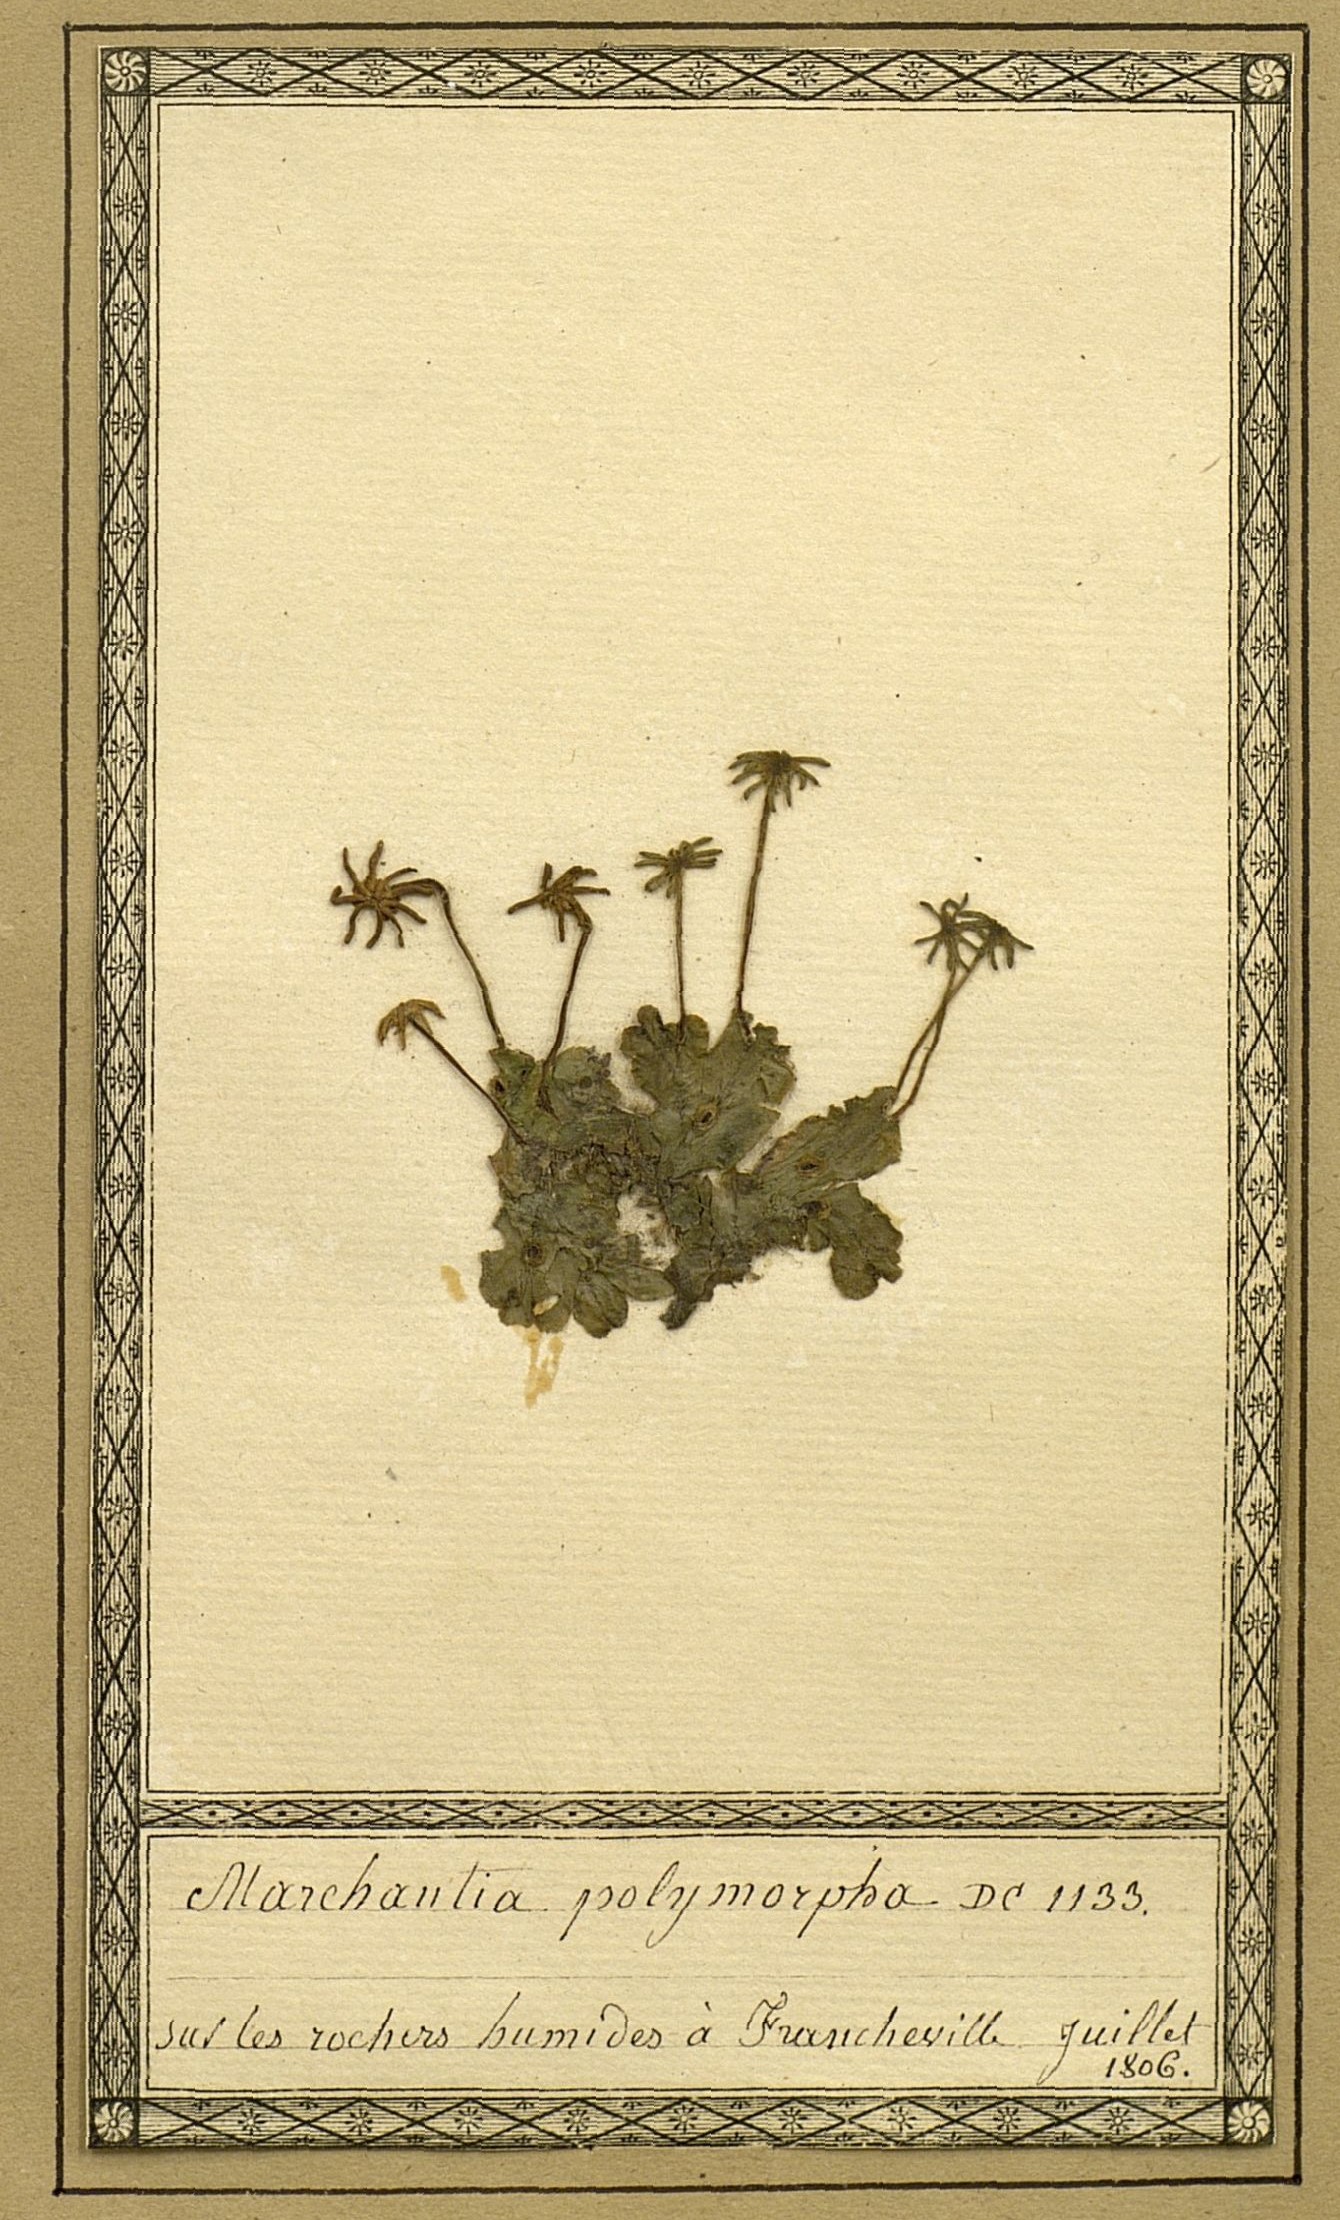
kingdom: Plantae
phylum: Marchantiophyta
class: Marchantiopsida
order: Marchantiales
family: Marchantiaceae
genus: Marchantia
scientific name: Marchantia polymorpha
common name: Common liverwort
